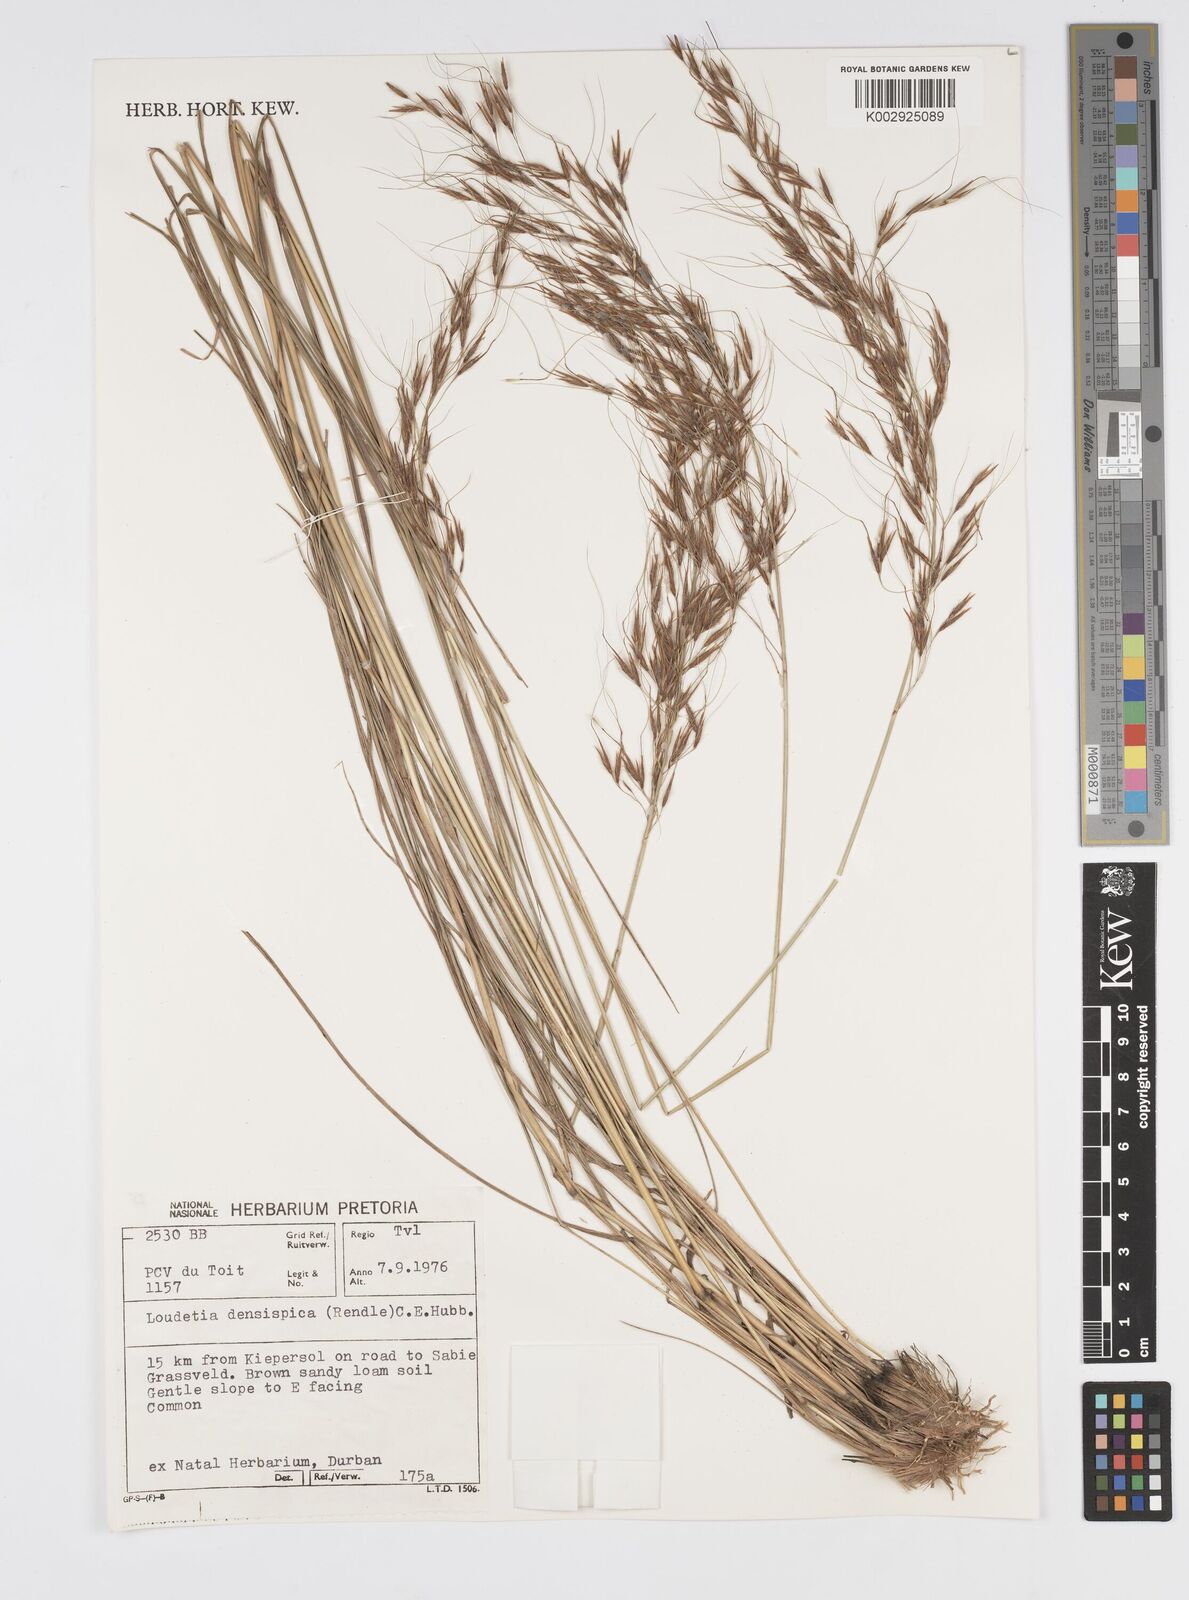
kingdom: Plantae
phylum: Tracheophyta
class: Liliopsida
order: Poales
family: Poaceae
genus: Loudetia
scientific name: Loudetia
